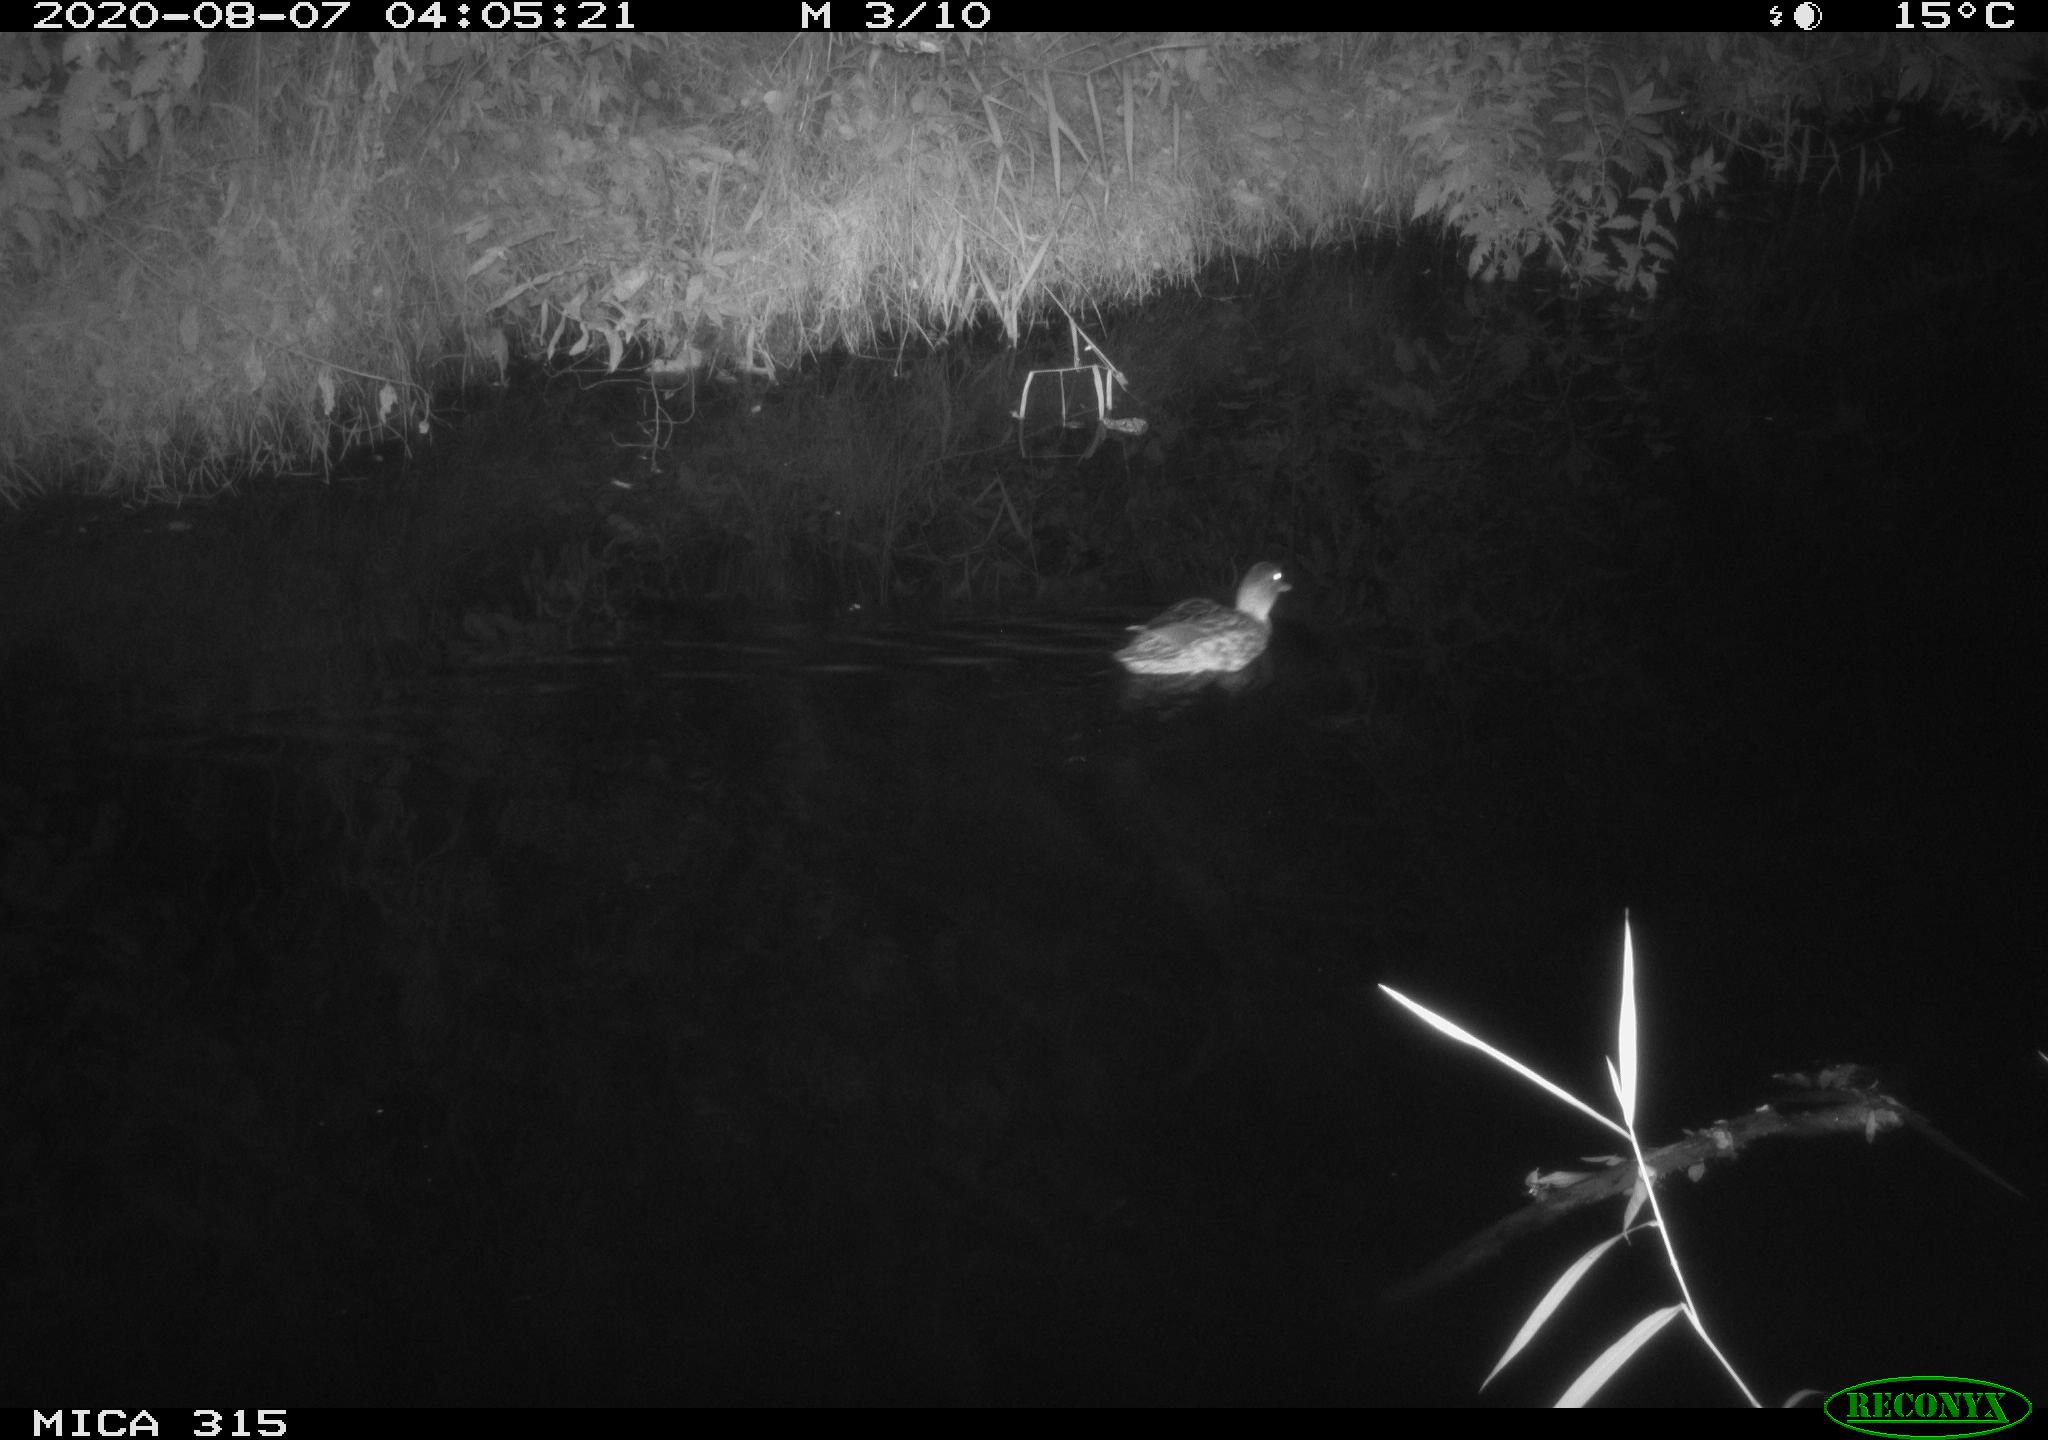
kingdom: Animalia
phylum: Chordata
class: Aves
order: Anseriformes
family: Anatidae
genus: Anas
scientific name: Anas platyrhynchos
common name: Mallard
